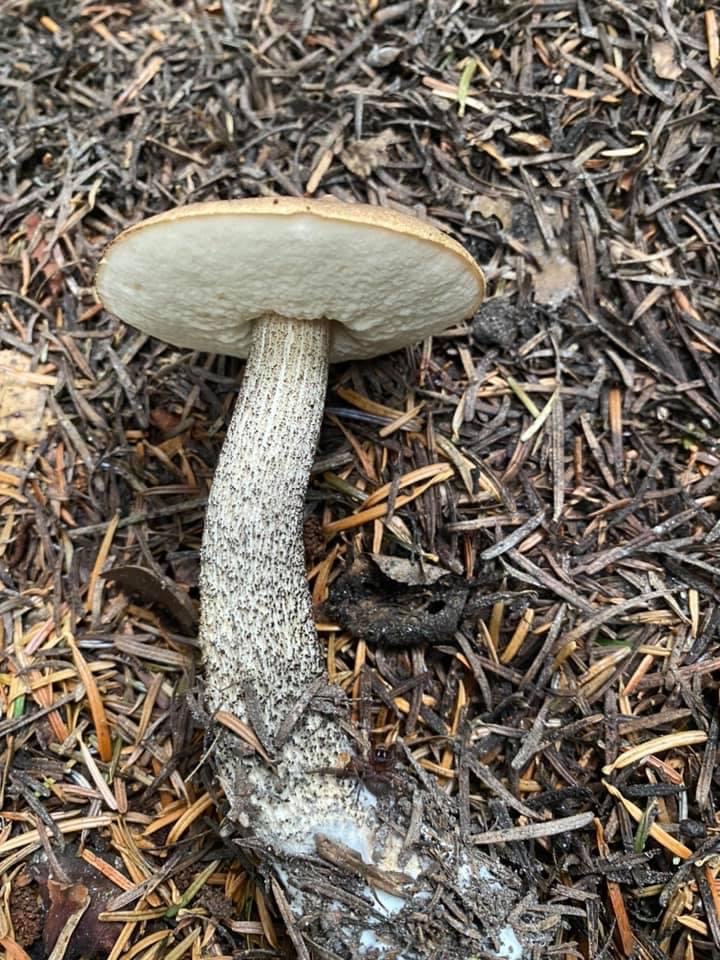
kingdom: Fungi
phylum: Basidiomycota
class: Agaricomycetes
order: Boletales
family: Boletaceae
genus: Leccinum
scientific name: Leccinum variicolor
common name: flammet skælrørhat
